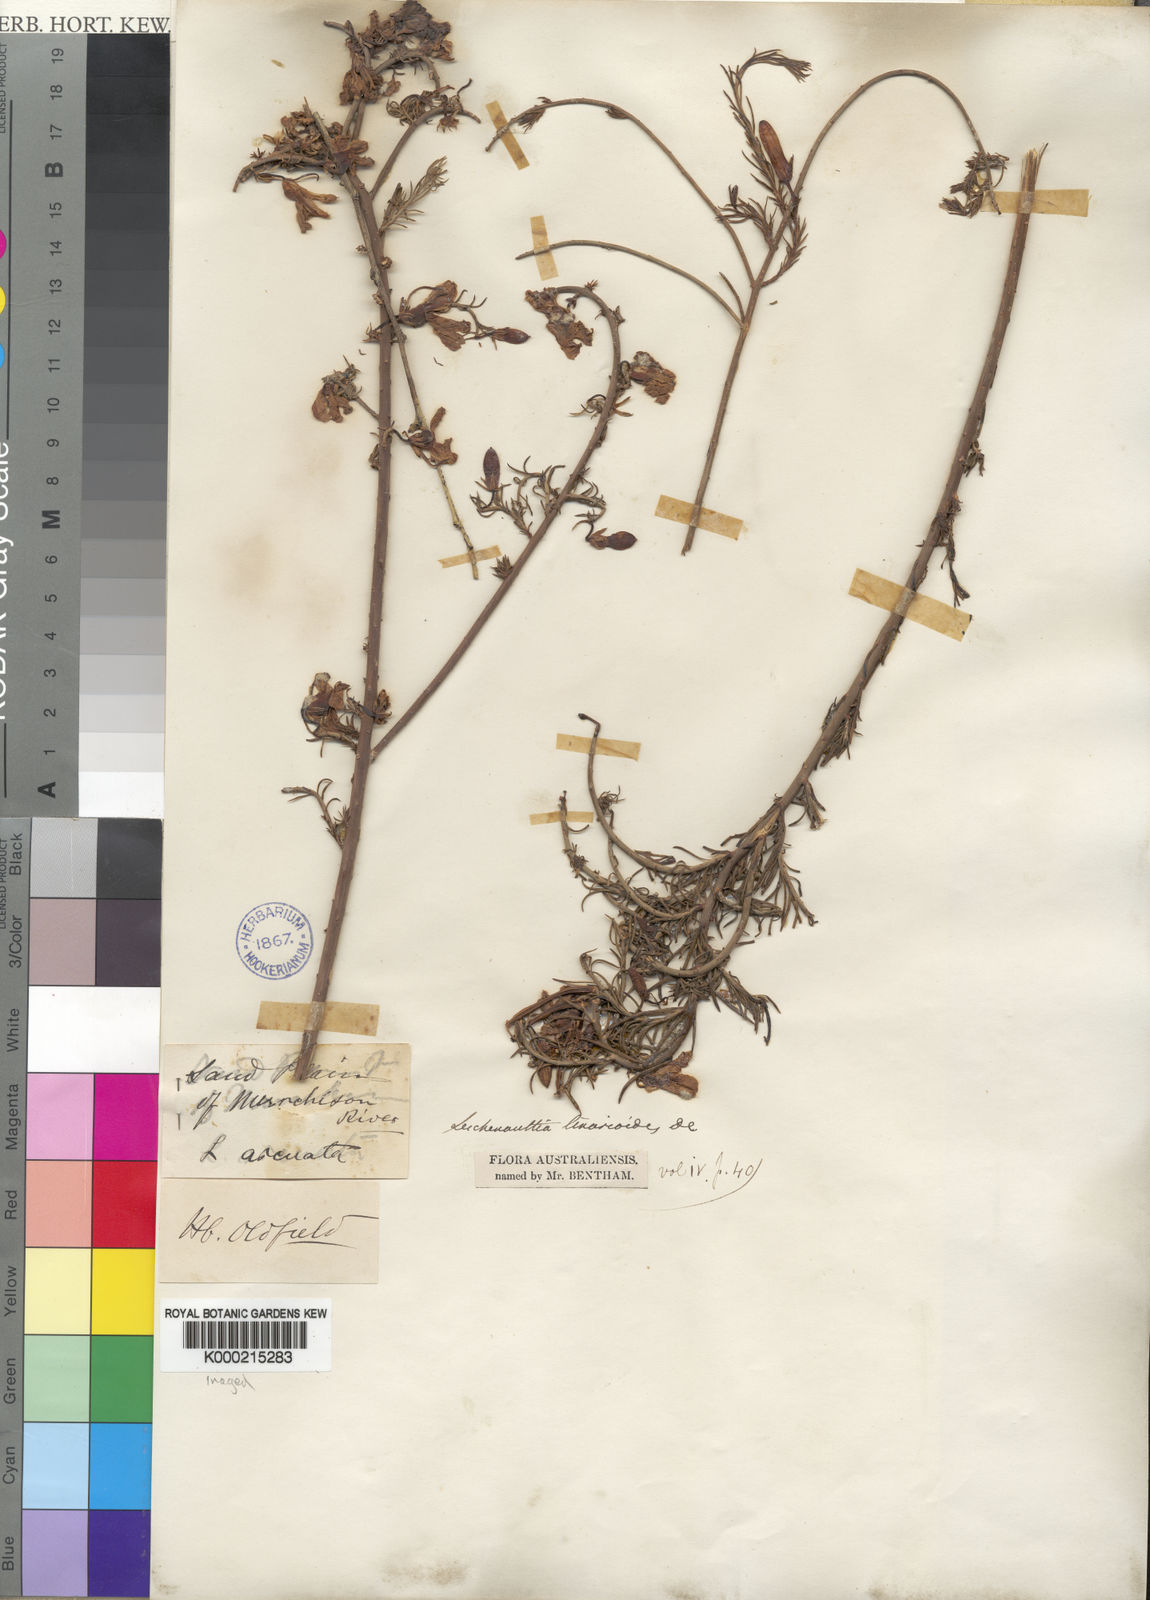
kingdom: Plantae
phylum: Tracheophyta
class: Magnoliopsida
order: Asterales
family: Goodeniaceae
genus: Leschenaultia
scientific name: Leschenaultia
